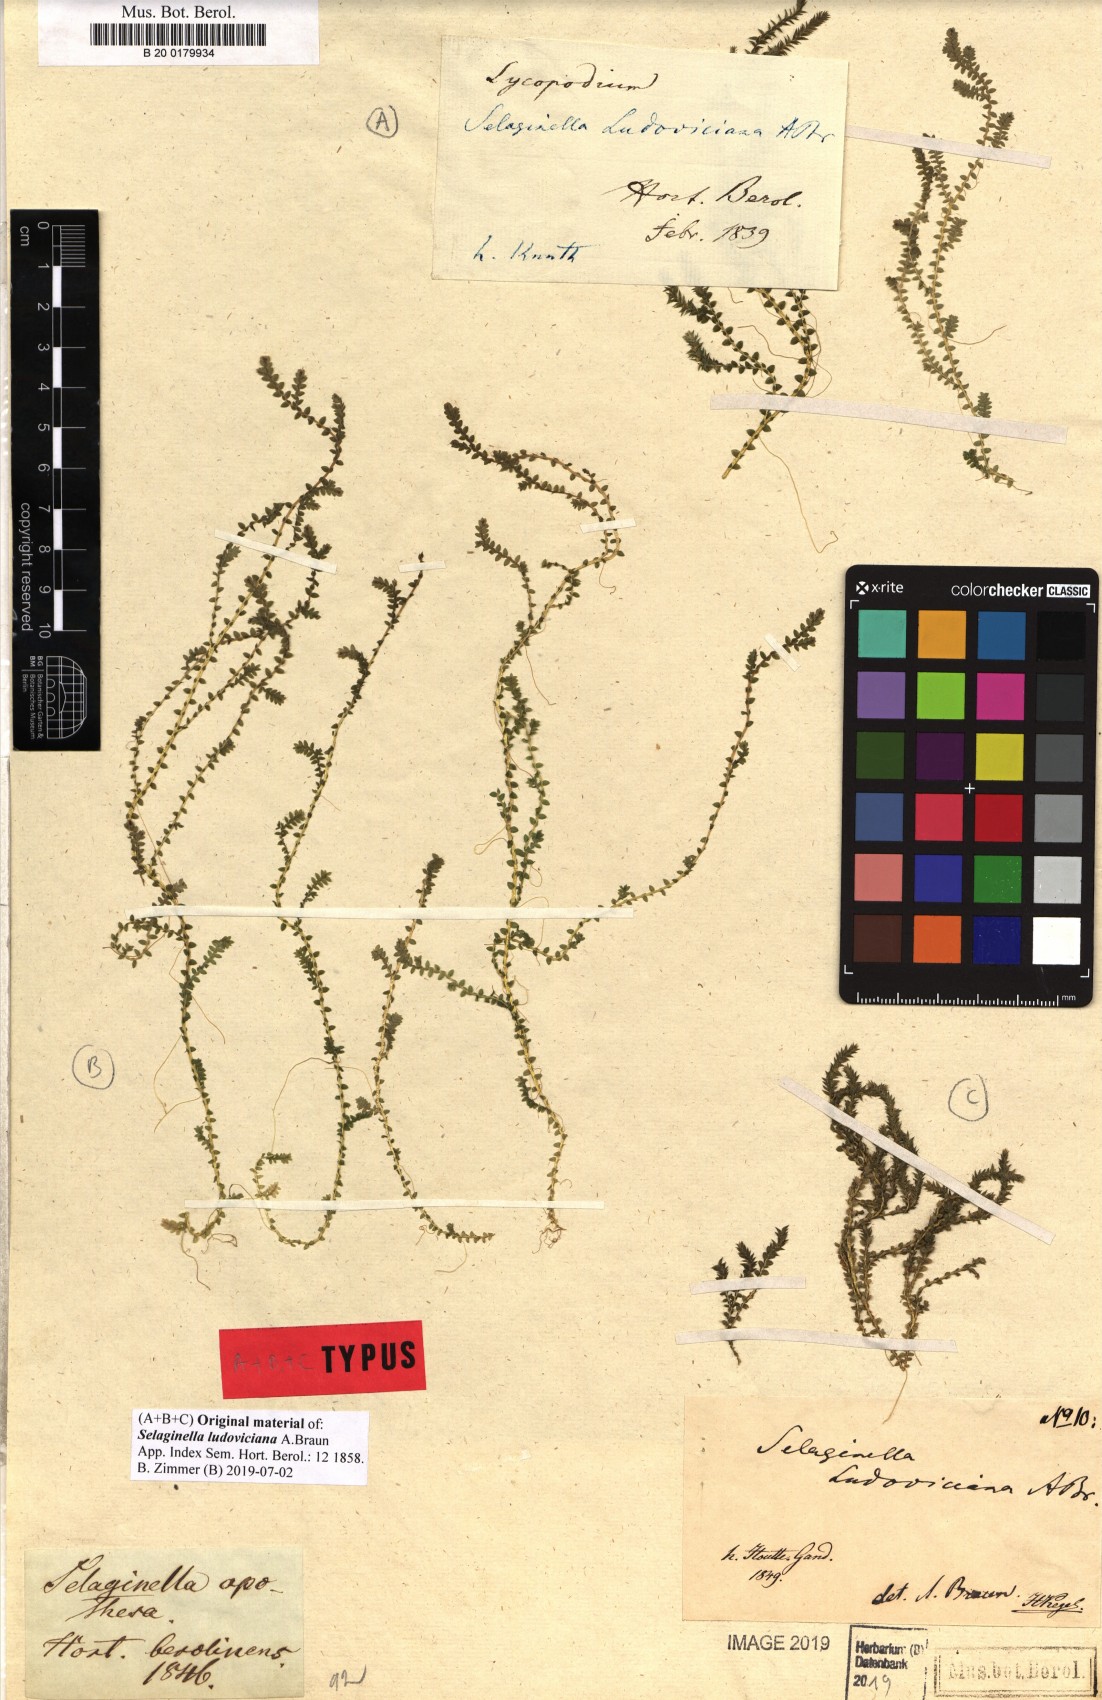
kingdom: Plantae
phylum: Tracheophyta
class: Lycopodiopsida
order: Selaginellales
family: Selaginellaceae
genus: Selaginella
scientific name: Selaginella ludoviciana
